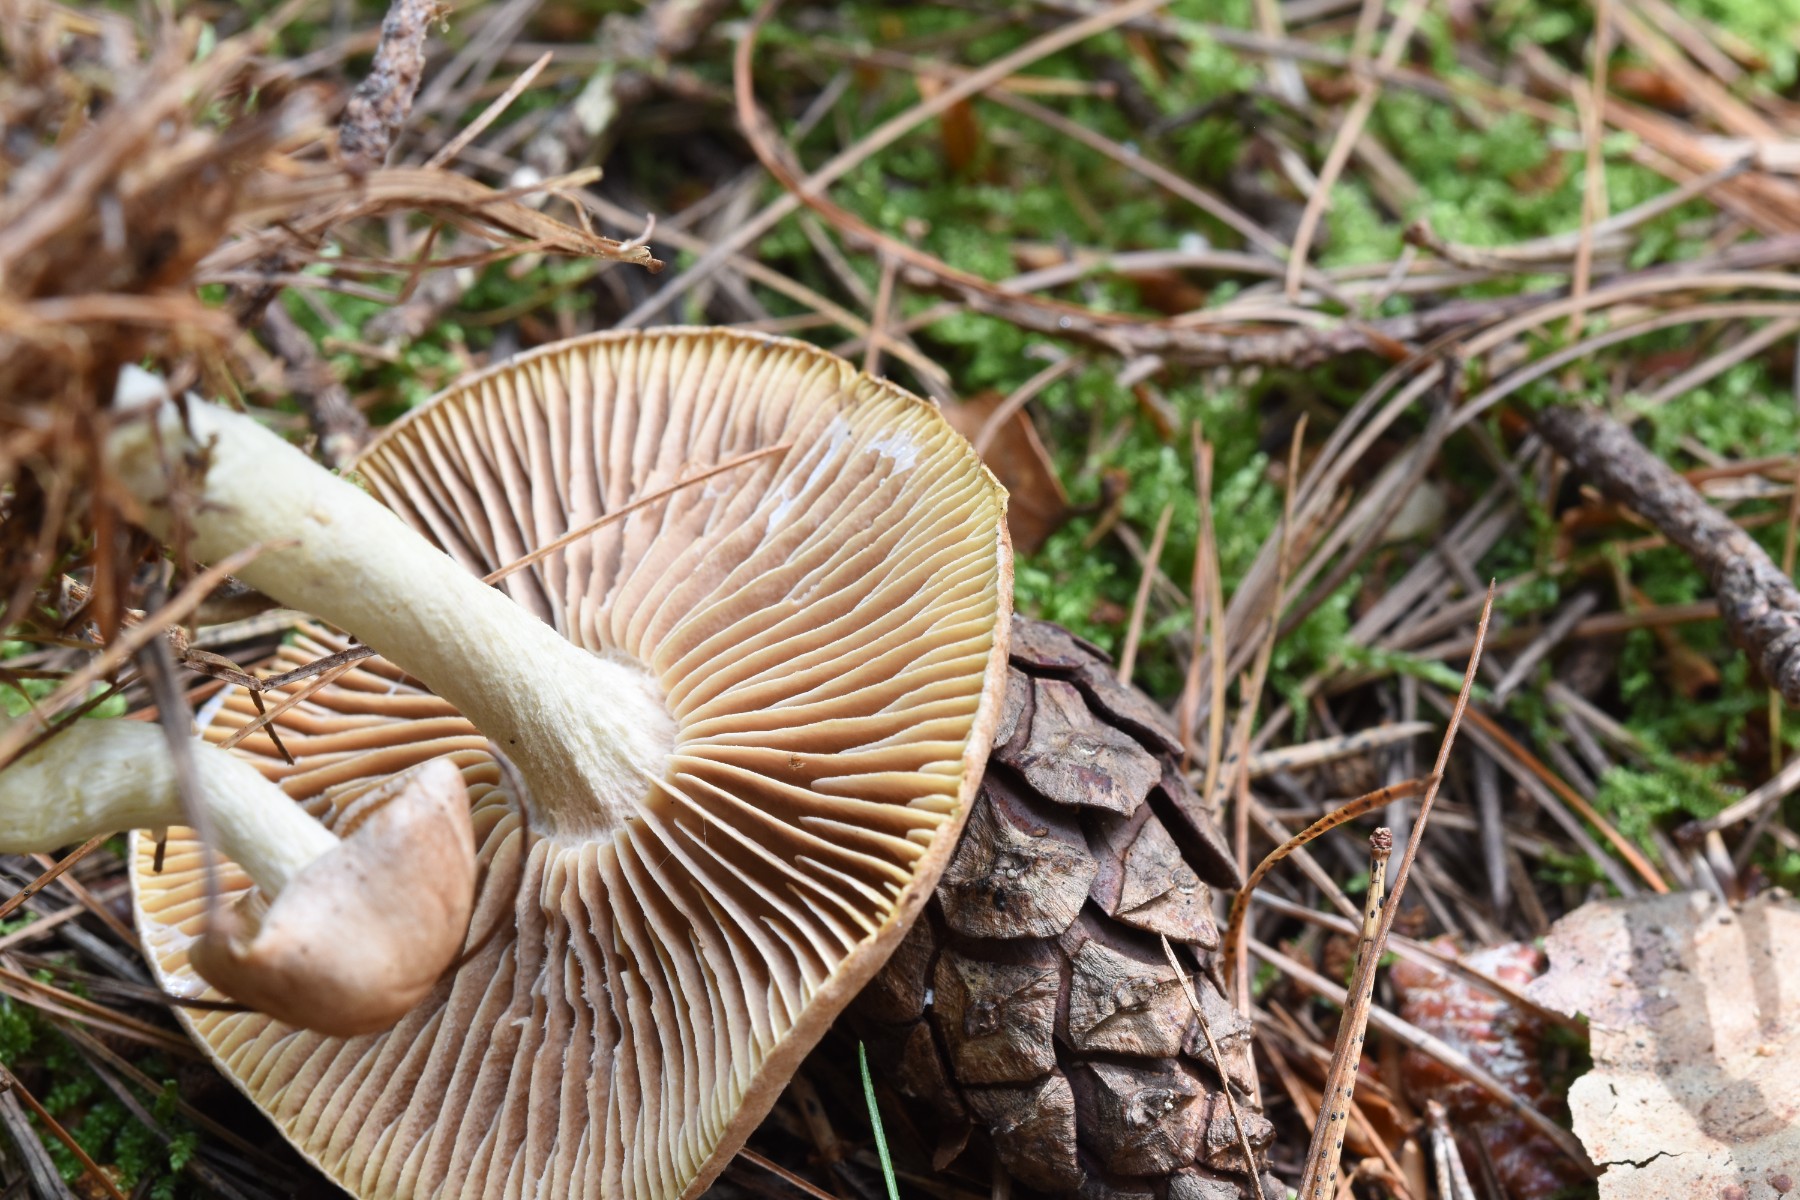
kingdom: Fungi
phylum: Basidiomycota
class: Agaricomycetes
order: Agaricales
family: Omphalotaceae
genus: Collybiopsis
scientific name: Collybiopsis peronata
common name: bestøvlet fladhat
